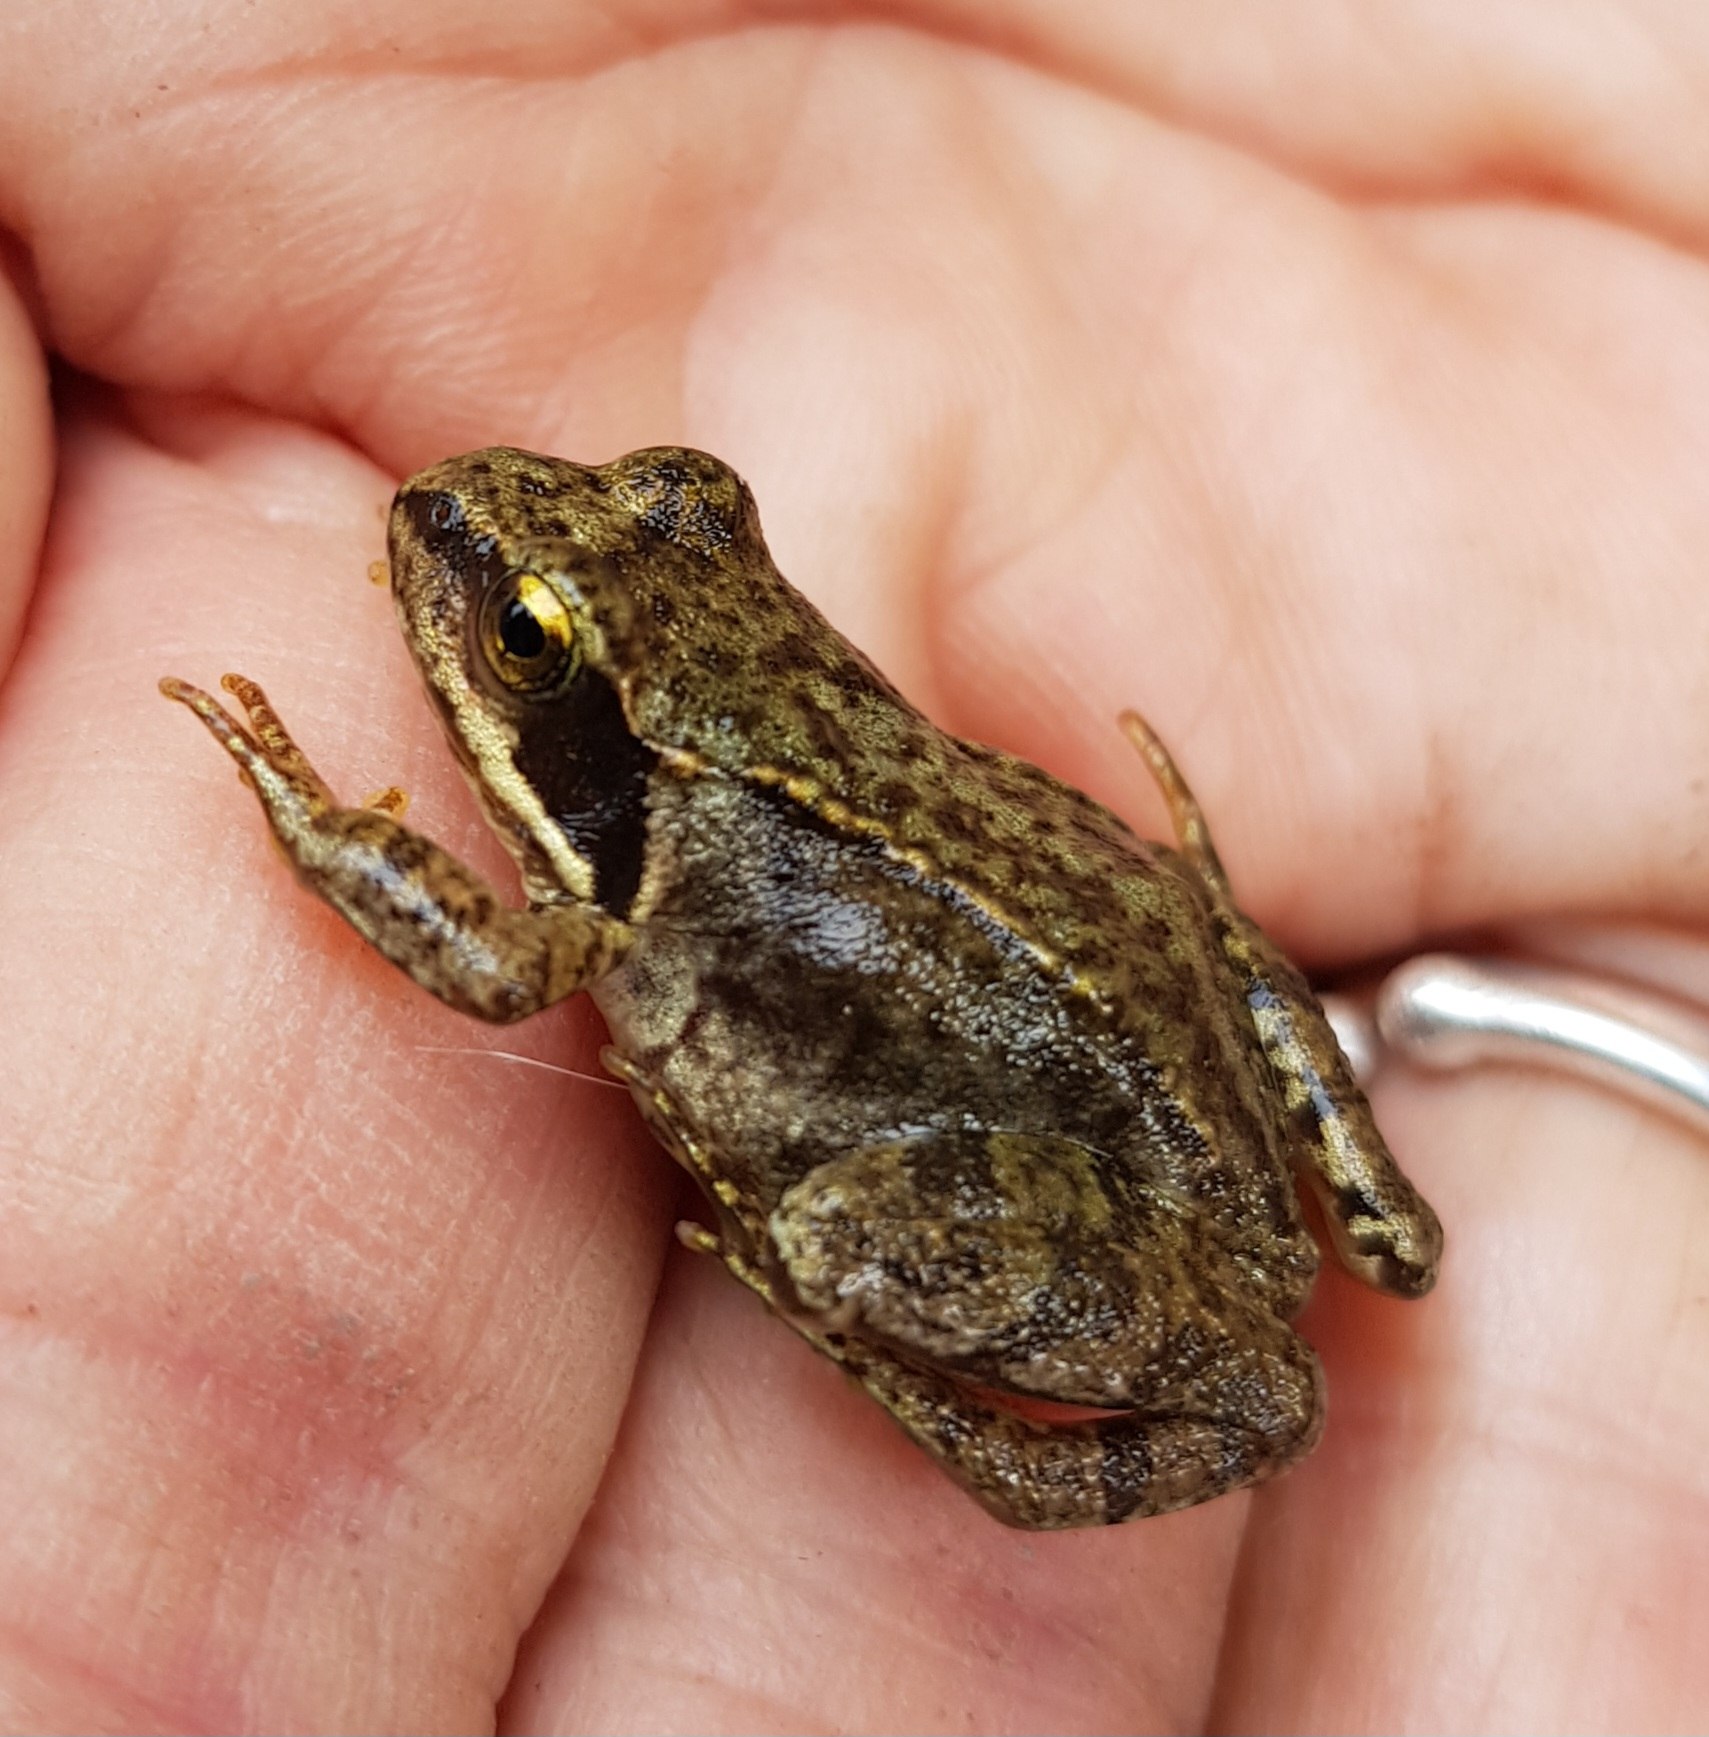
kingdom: Animalia
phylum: Chordata
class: Amphibia
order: Anura
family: Ranidae
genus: Rana
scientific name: Rana temporaria
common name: Butsnudet frø
